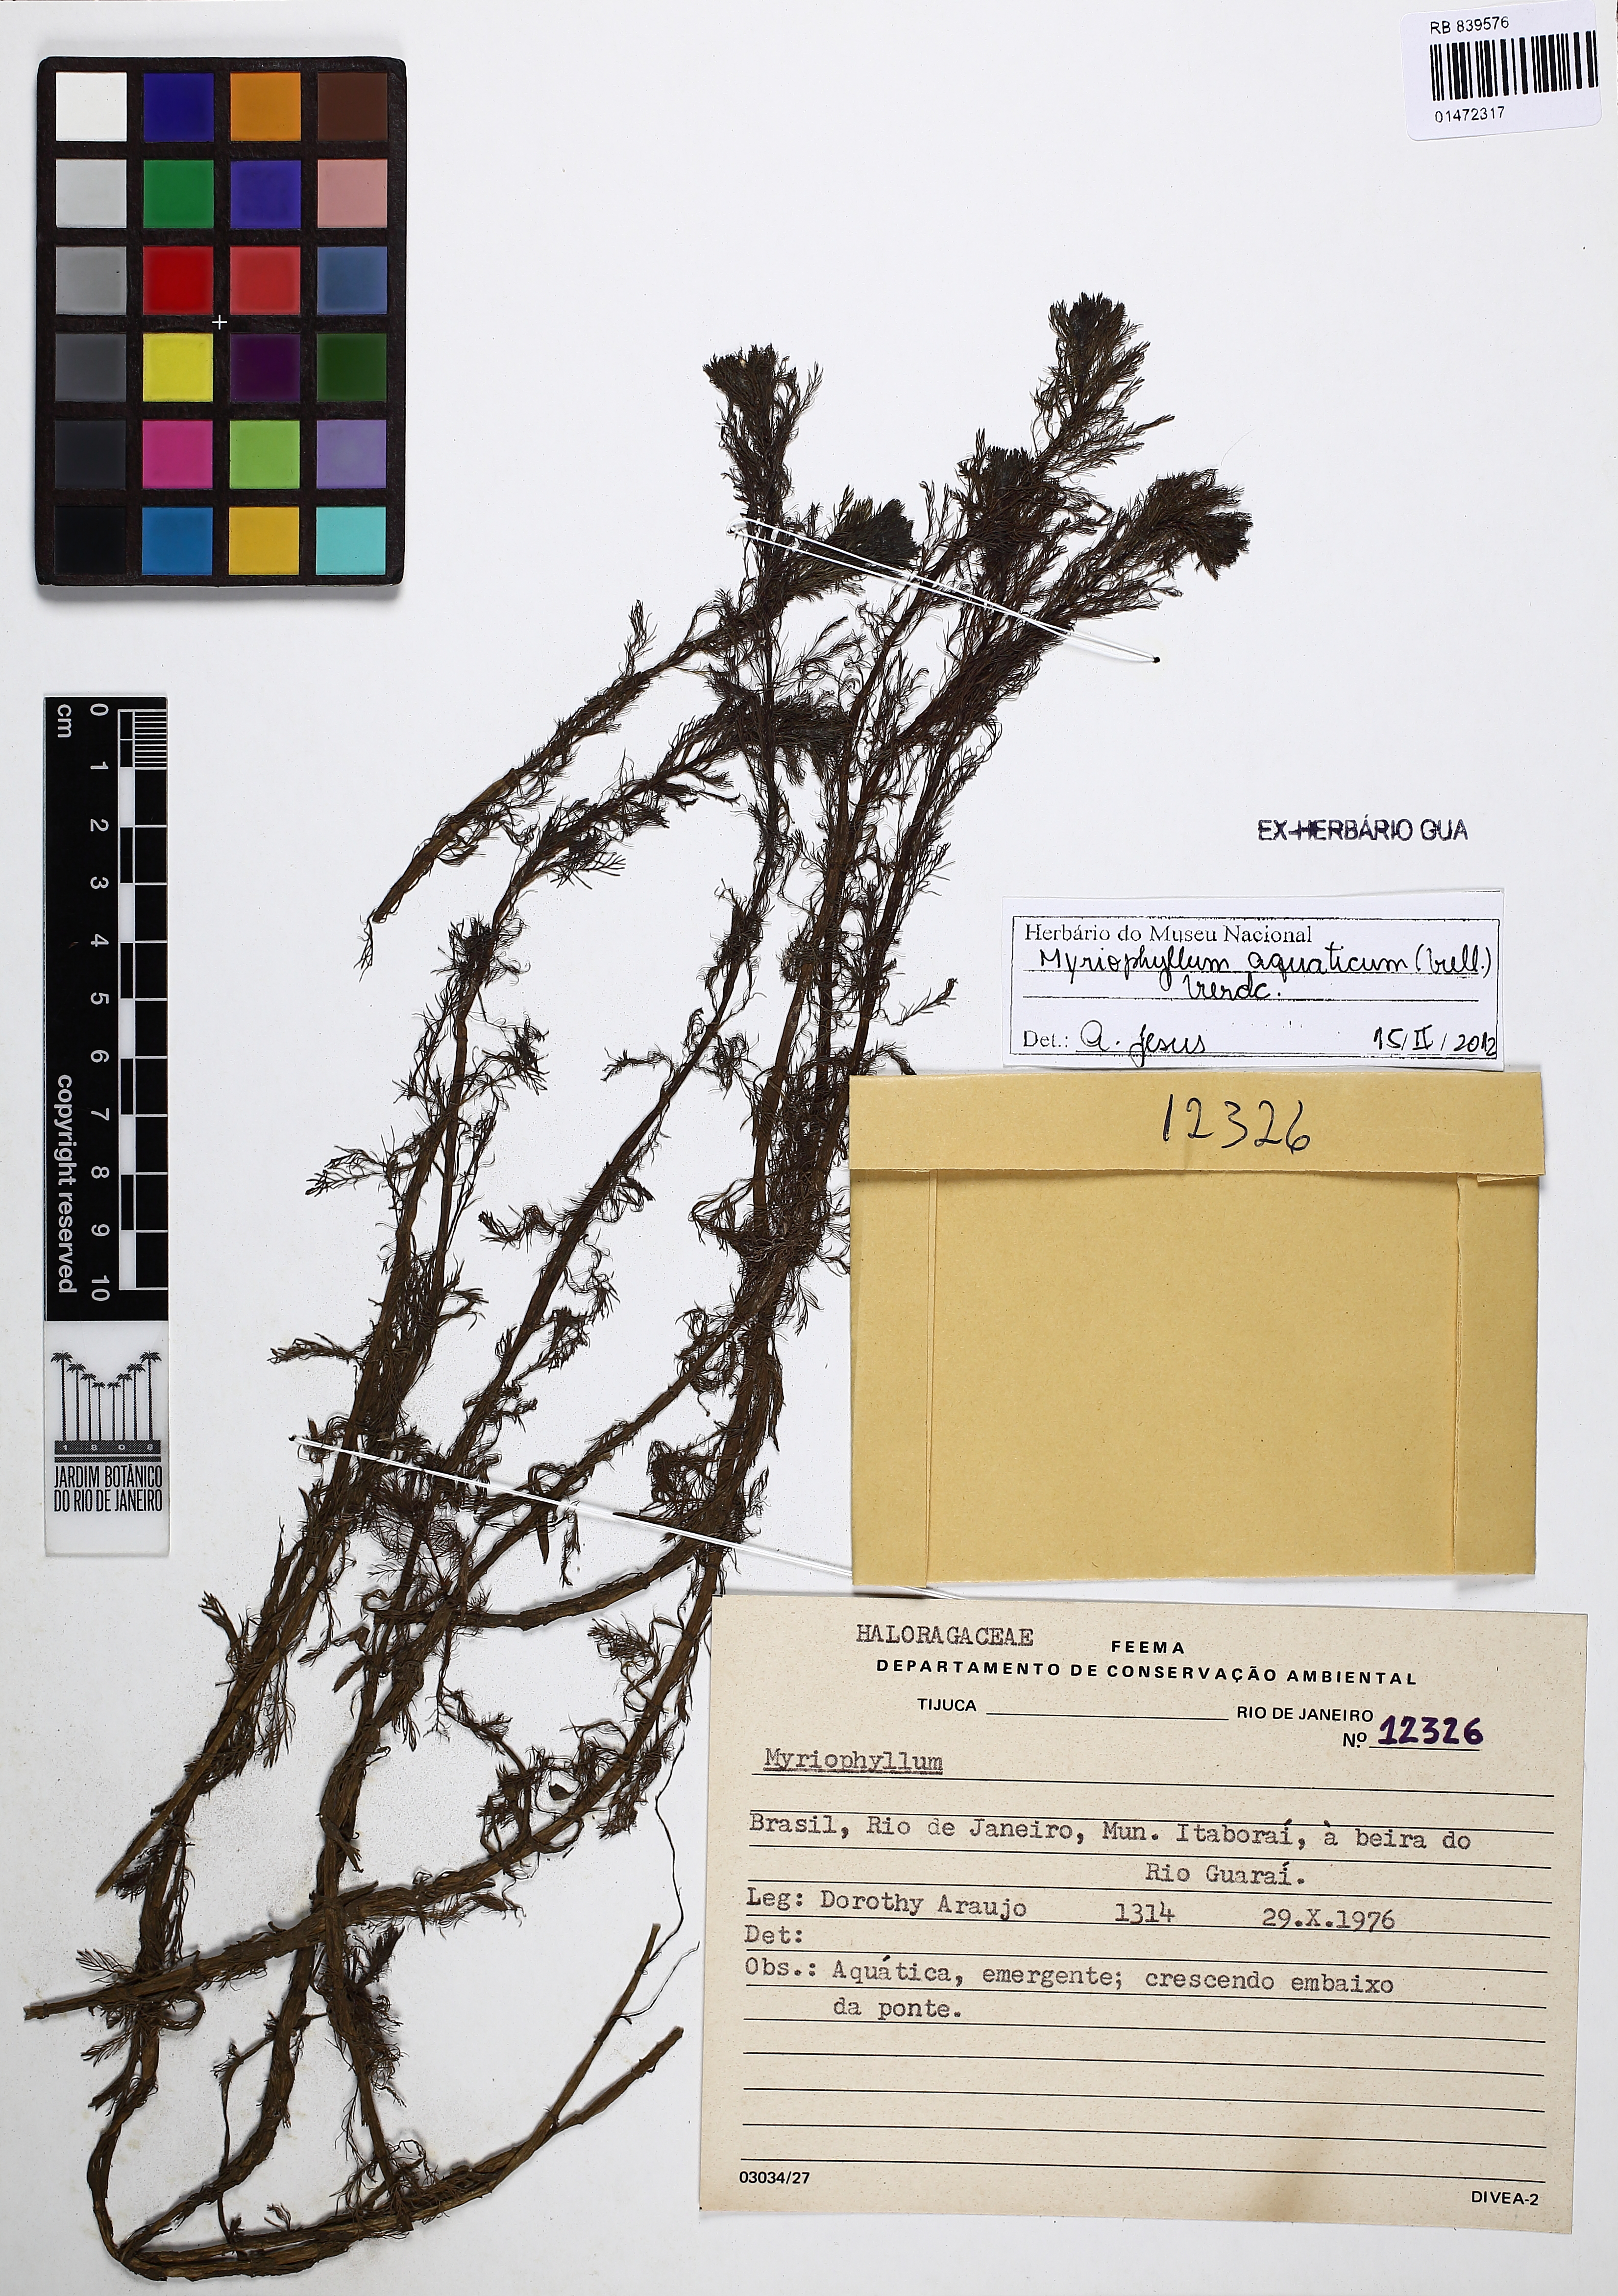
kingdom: Plantae
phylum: Tracheophyta
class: Magnoliopsida
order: Saxifragales
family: Haloragaceae
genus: Myriophyllum
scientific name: Myriophyllum aquaticum
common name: Parrot's feather
